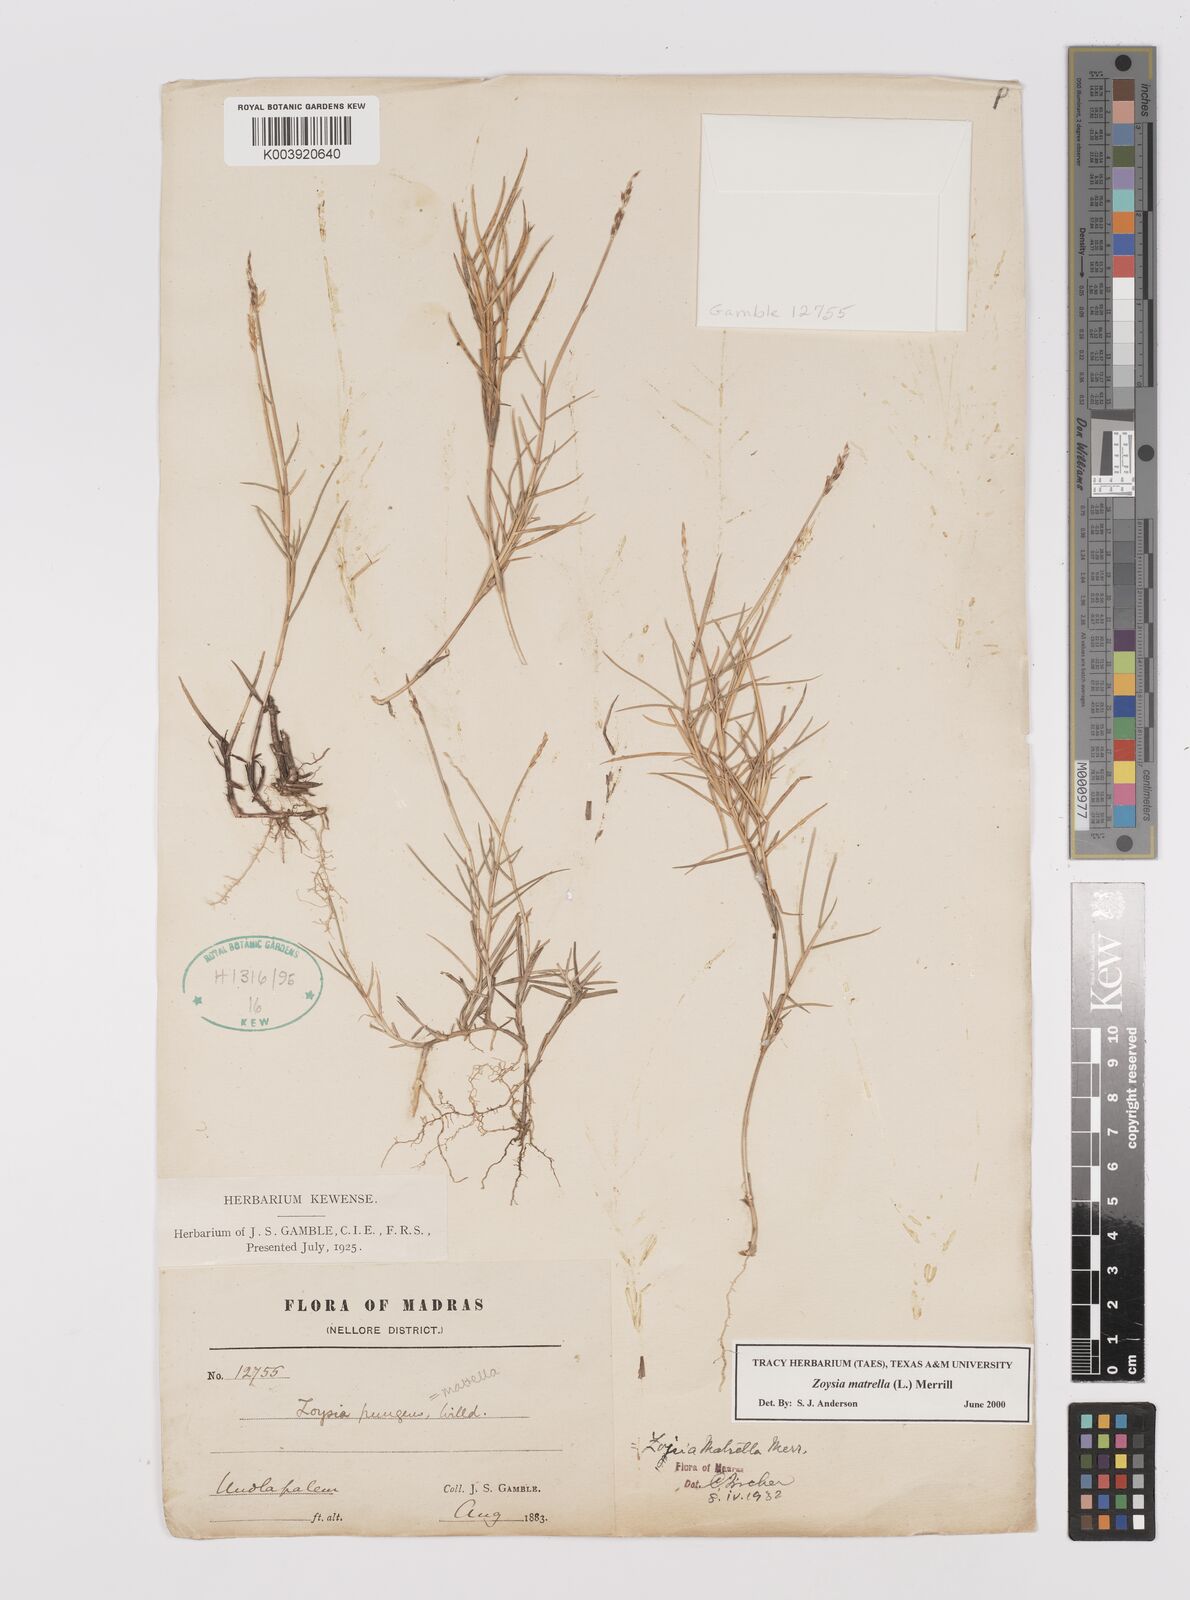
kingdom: Plantae
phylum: Tracheophyta
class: Liliopsida
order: Poales
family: Poaceae
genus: Zoysia
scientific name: Zoysia matrella
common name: Manila grass
